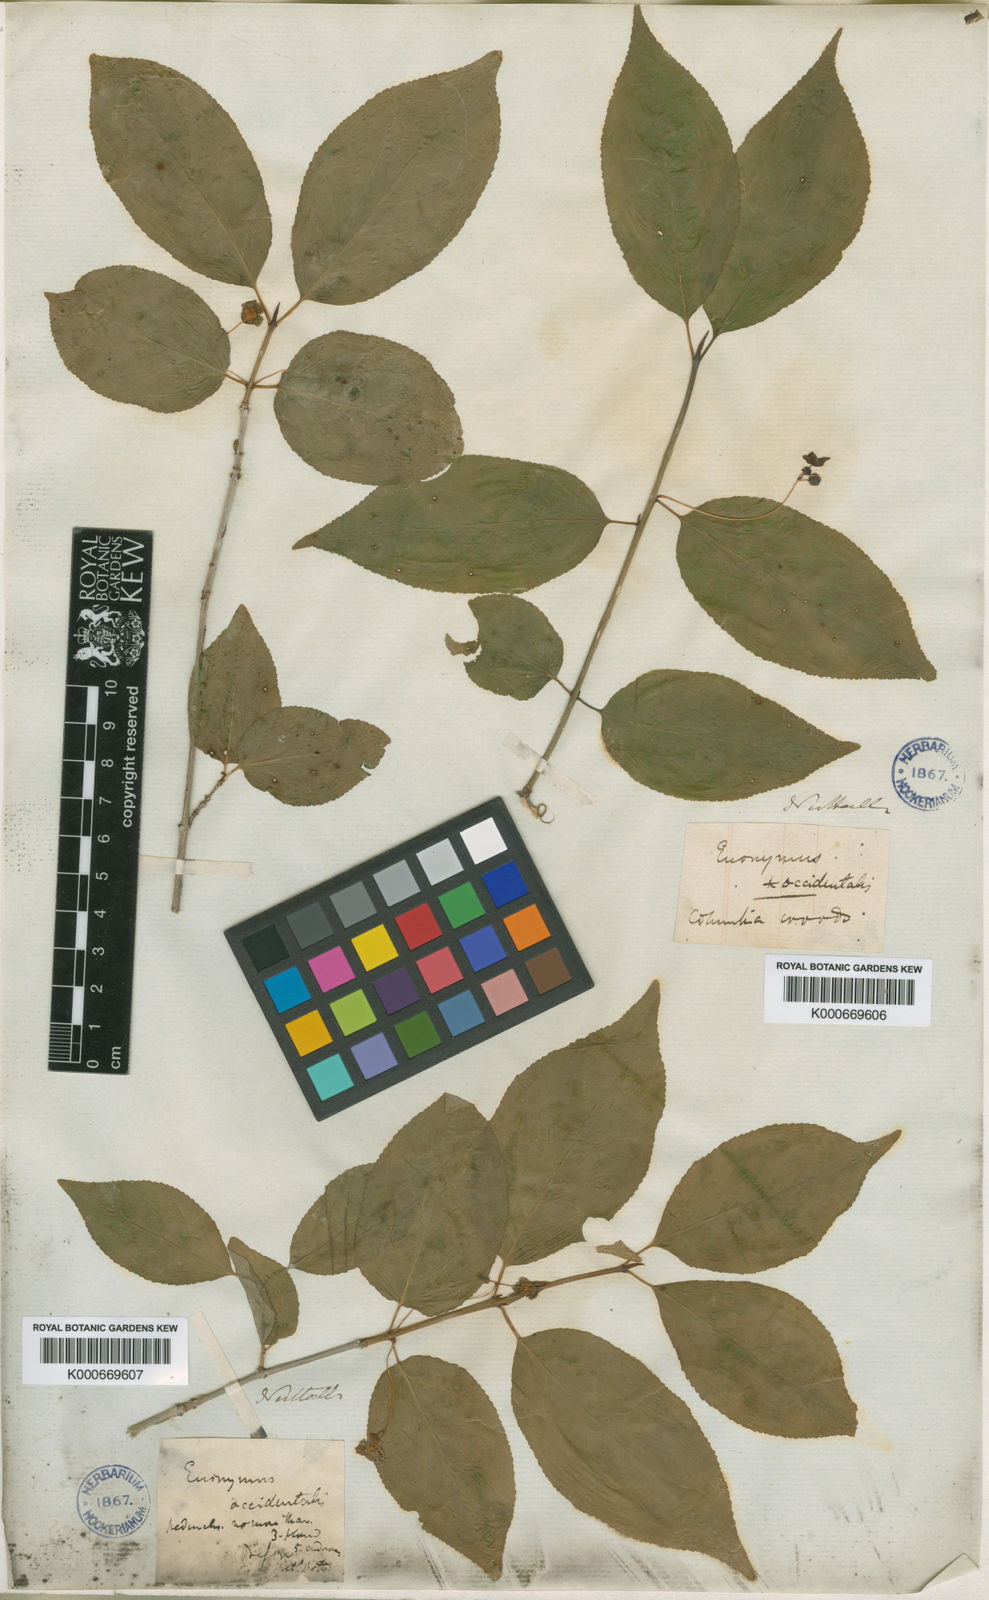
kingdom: Plantae
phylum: Tracheophyta
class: Magnoliopsida
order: Celastrales
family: Celastraceae
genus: Euonymus
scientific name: Euonymus occidentalis
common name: Western burningbush
